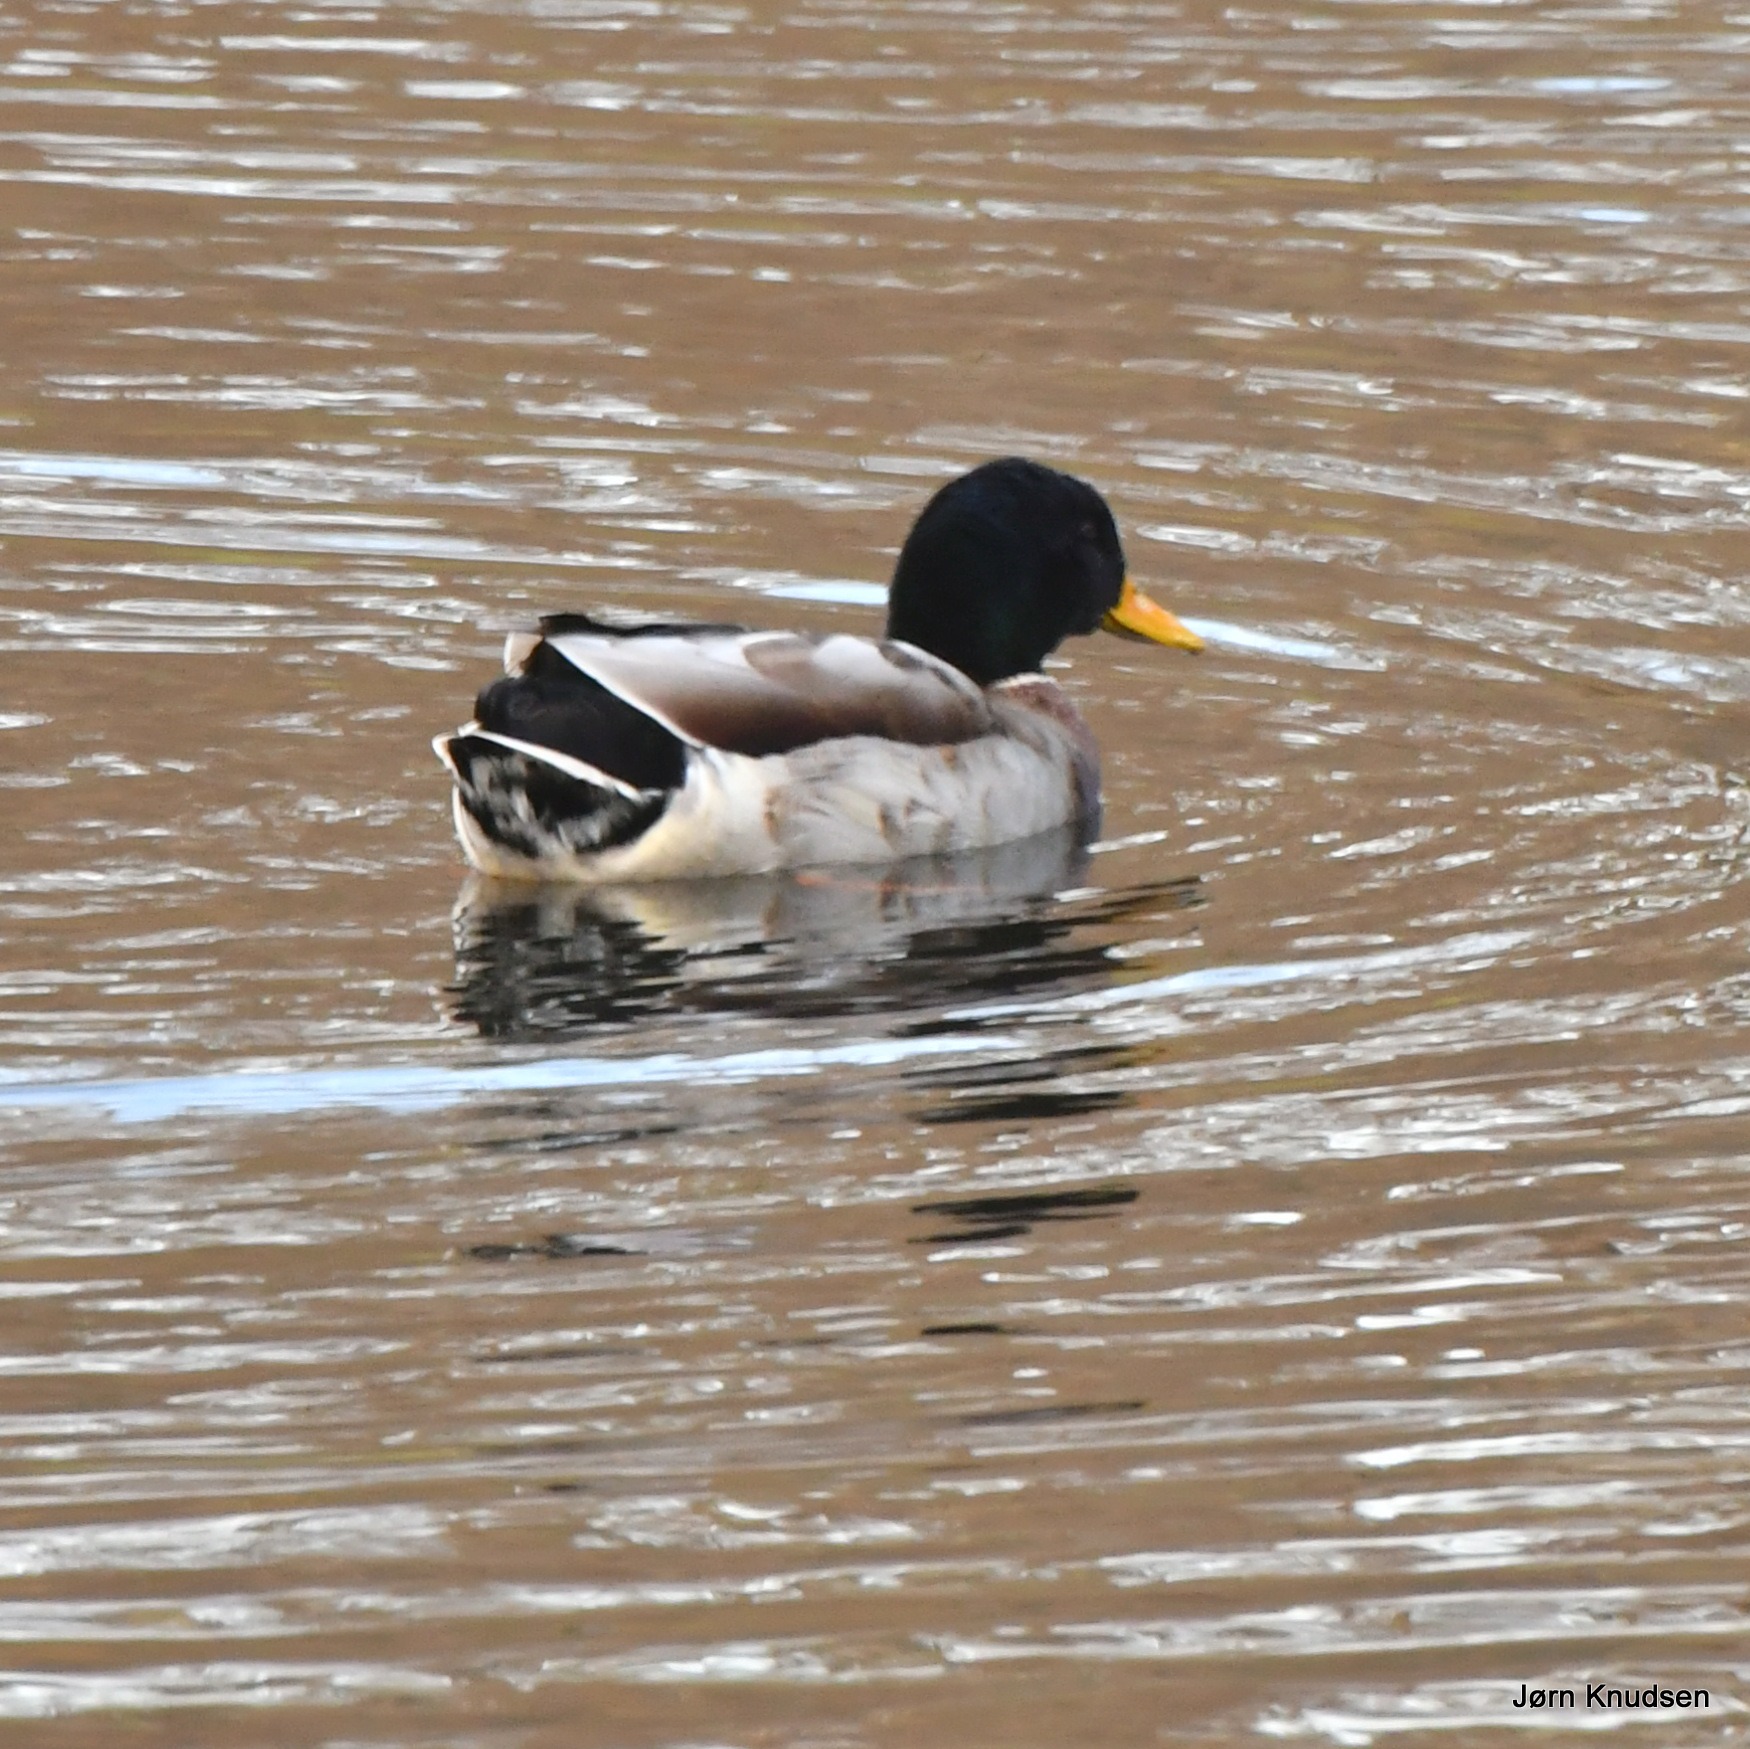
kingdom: Animalia
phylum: Chordata
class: Aves
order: Anseriformes
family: Anatidae
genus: Anas
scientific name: Anas platyrhynchos
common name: Gråand
